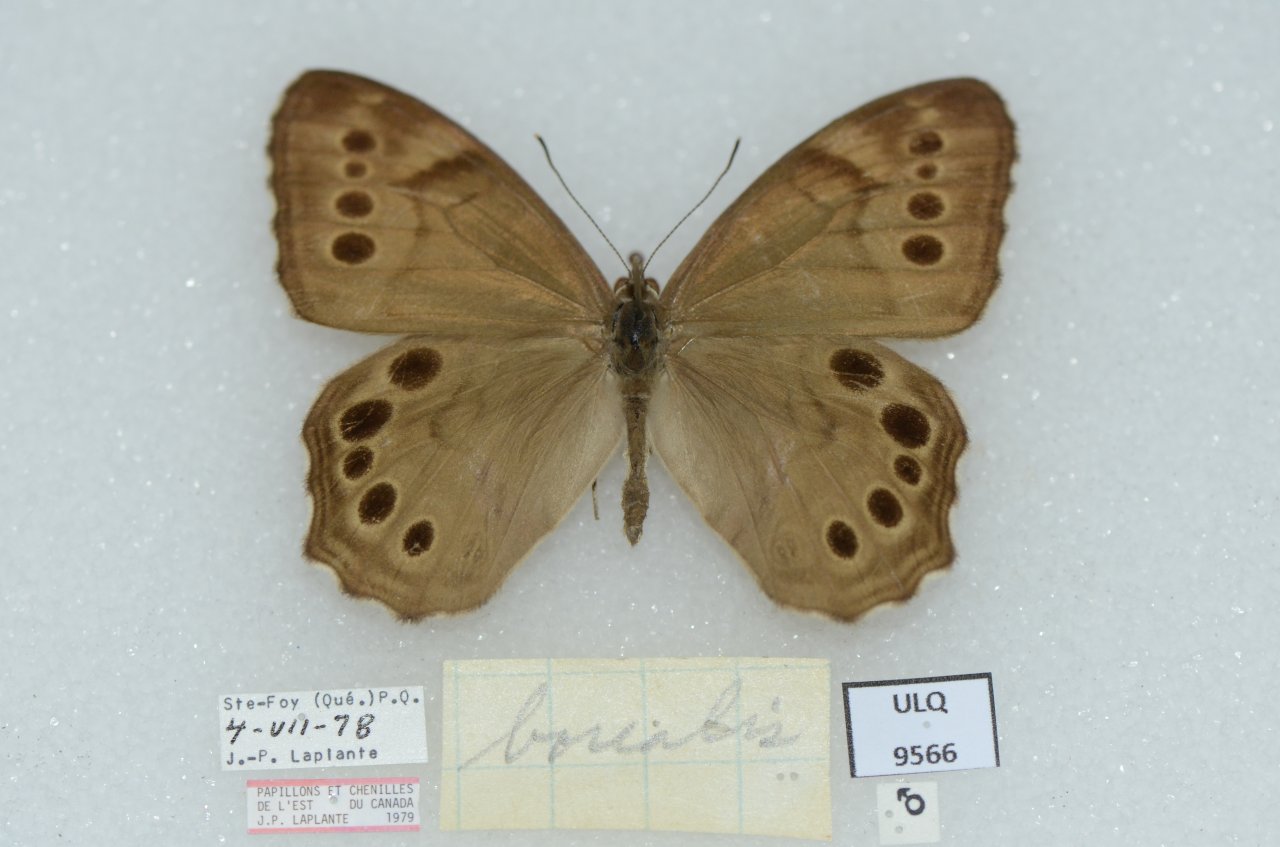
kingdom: Animalia
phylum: Arthropoda
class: Insecta
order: Lepidoptera
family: Nymphalidae
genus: Lethe
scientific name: Lethe anthedon
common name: Northern Pearly-Eye
